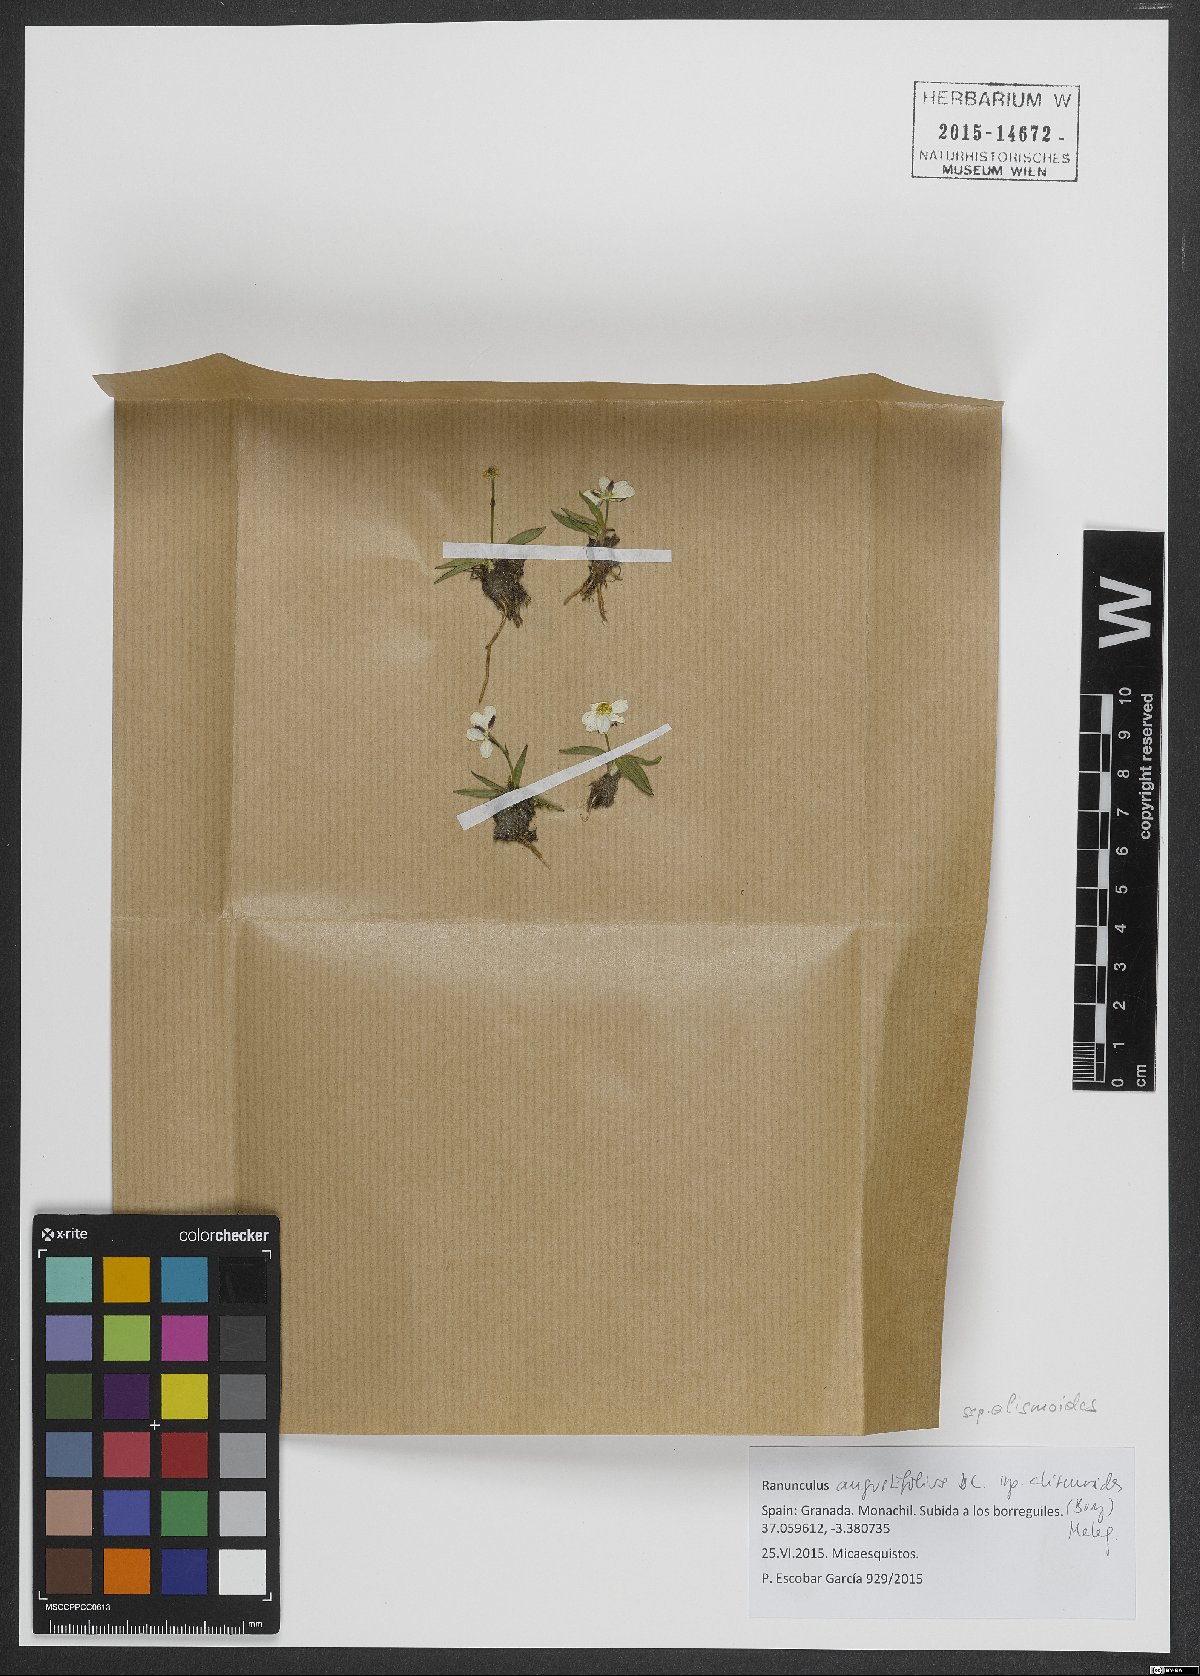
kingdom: Plantae
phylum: Tracheophyta
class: Magnoliopsida
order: Ranunculales
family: Ranunculaceae
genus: Ranunculus
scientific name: Ranunculus angustifolius
